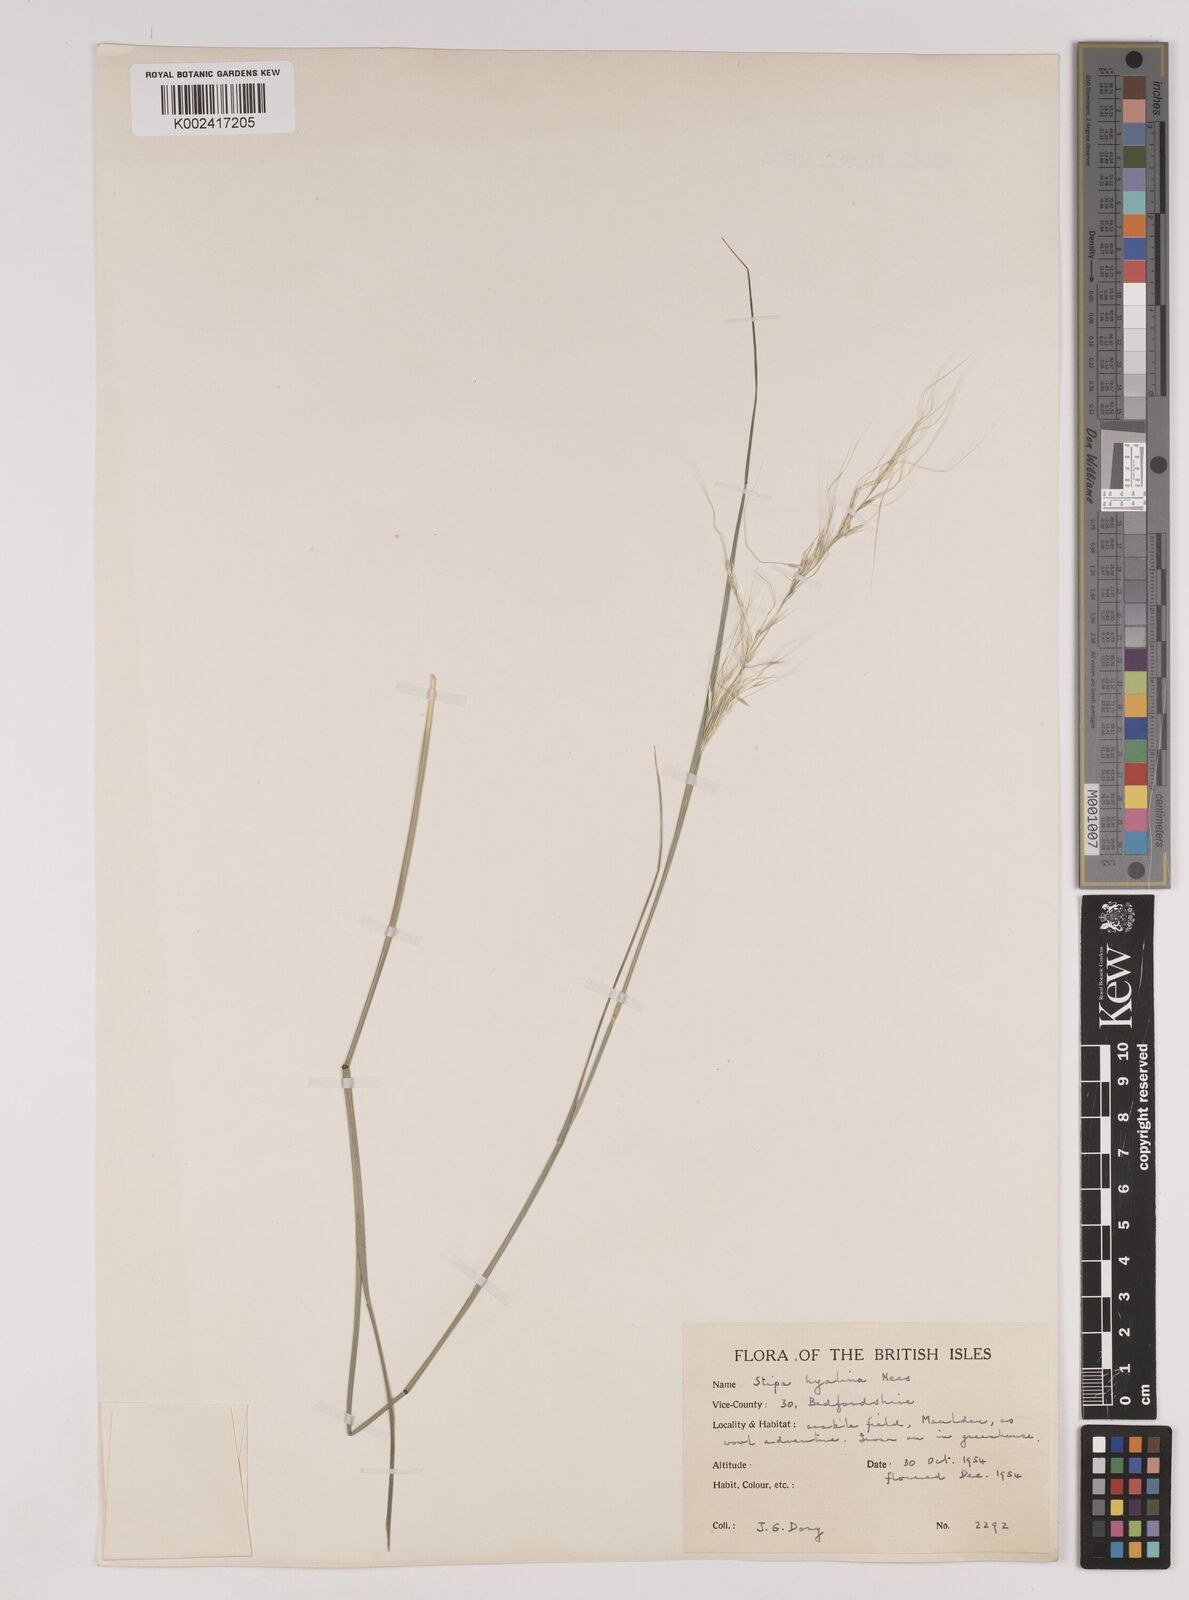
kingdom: Plantae
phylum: Tracheophyta
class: Liliopsida
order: Poales
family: Poaceae
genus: Nassella
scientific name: Nassella hyalina
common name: Spear grass
